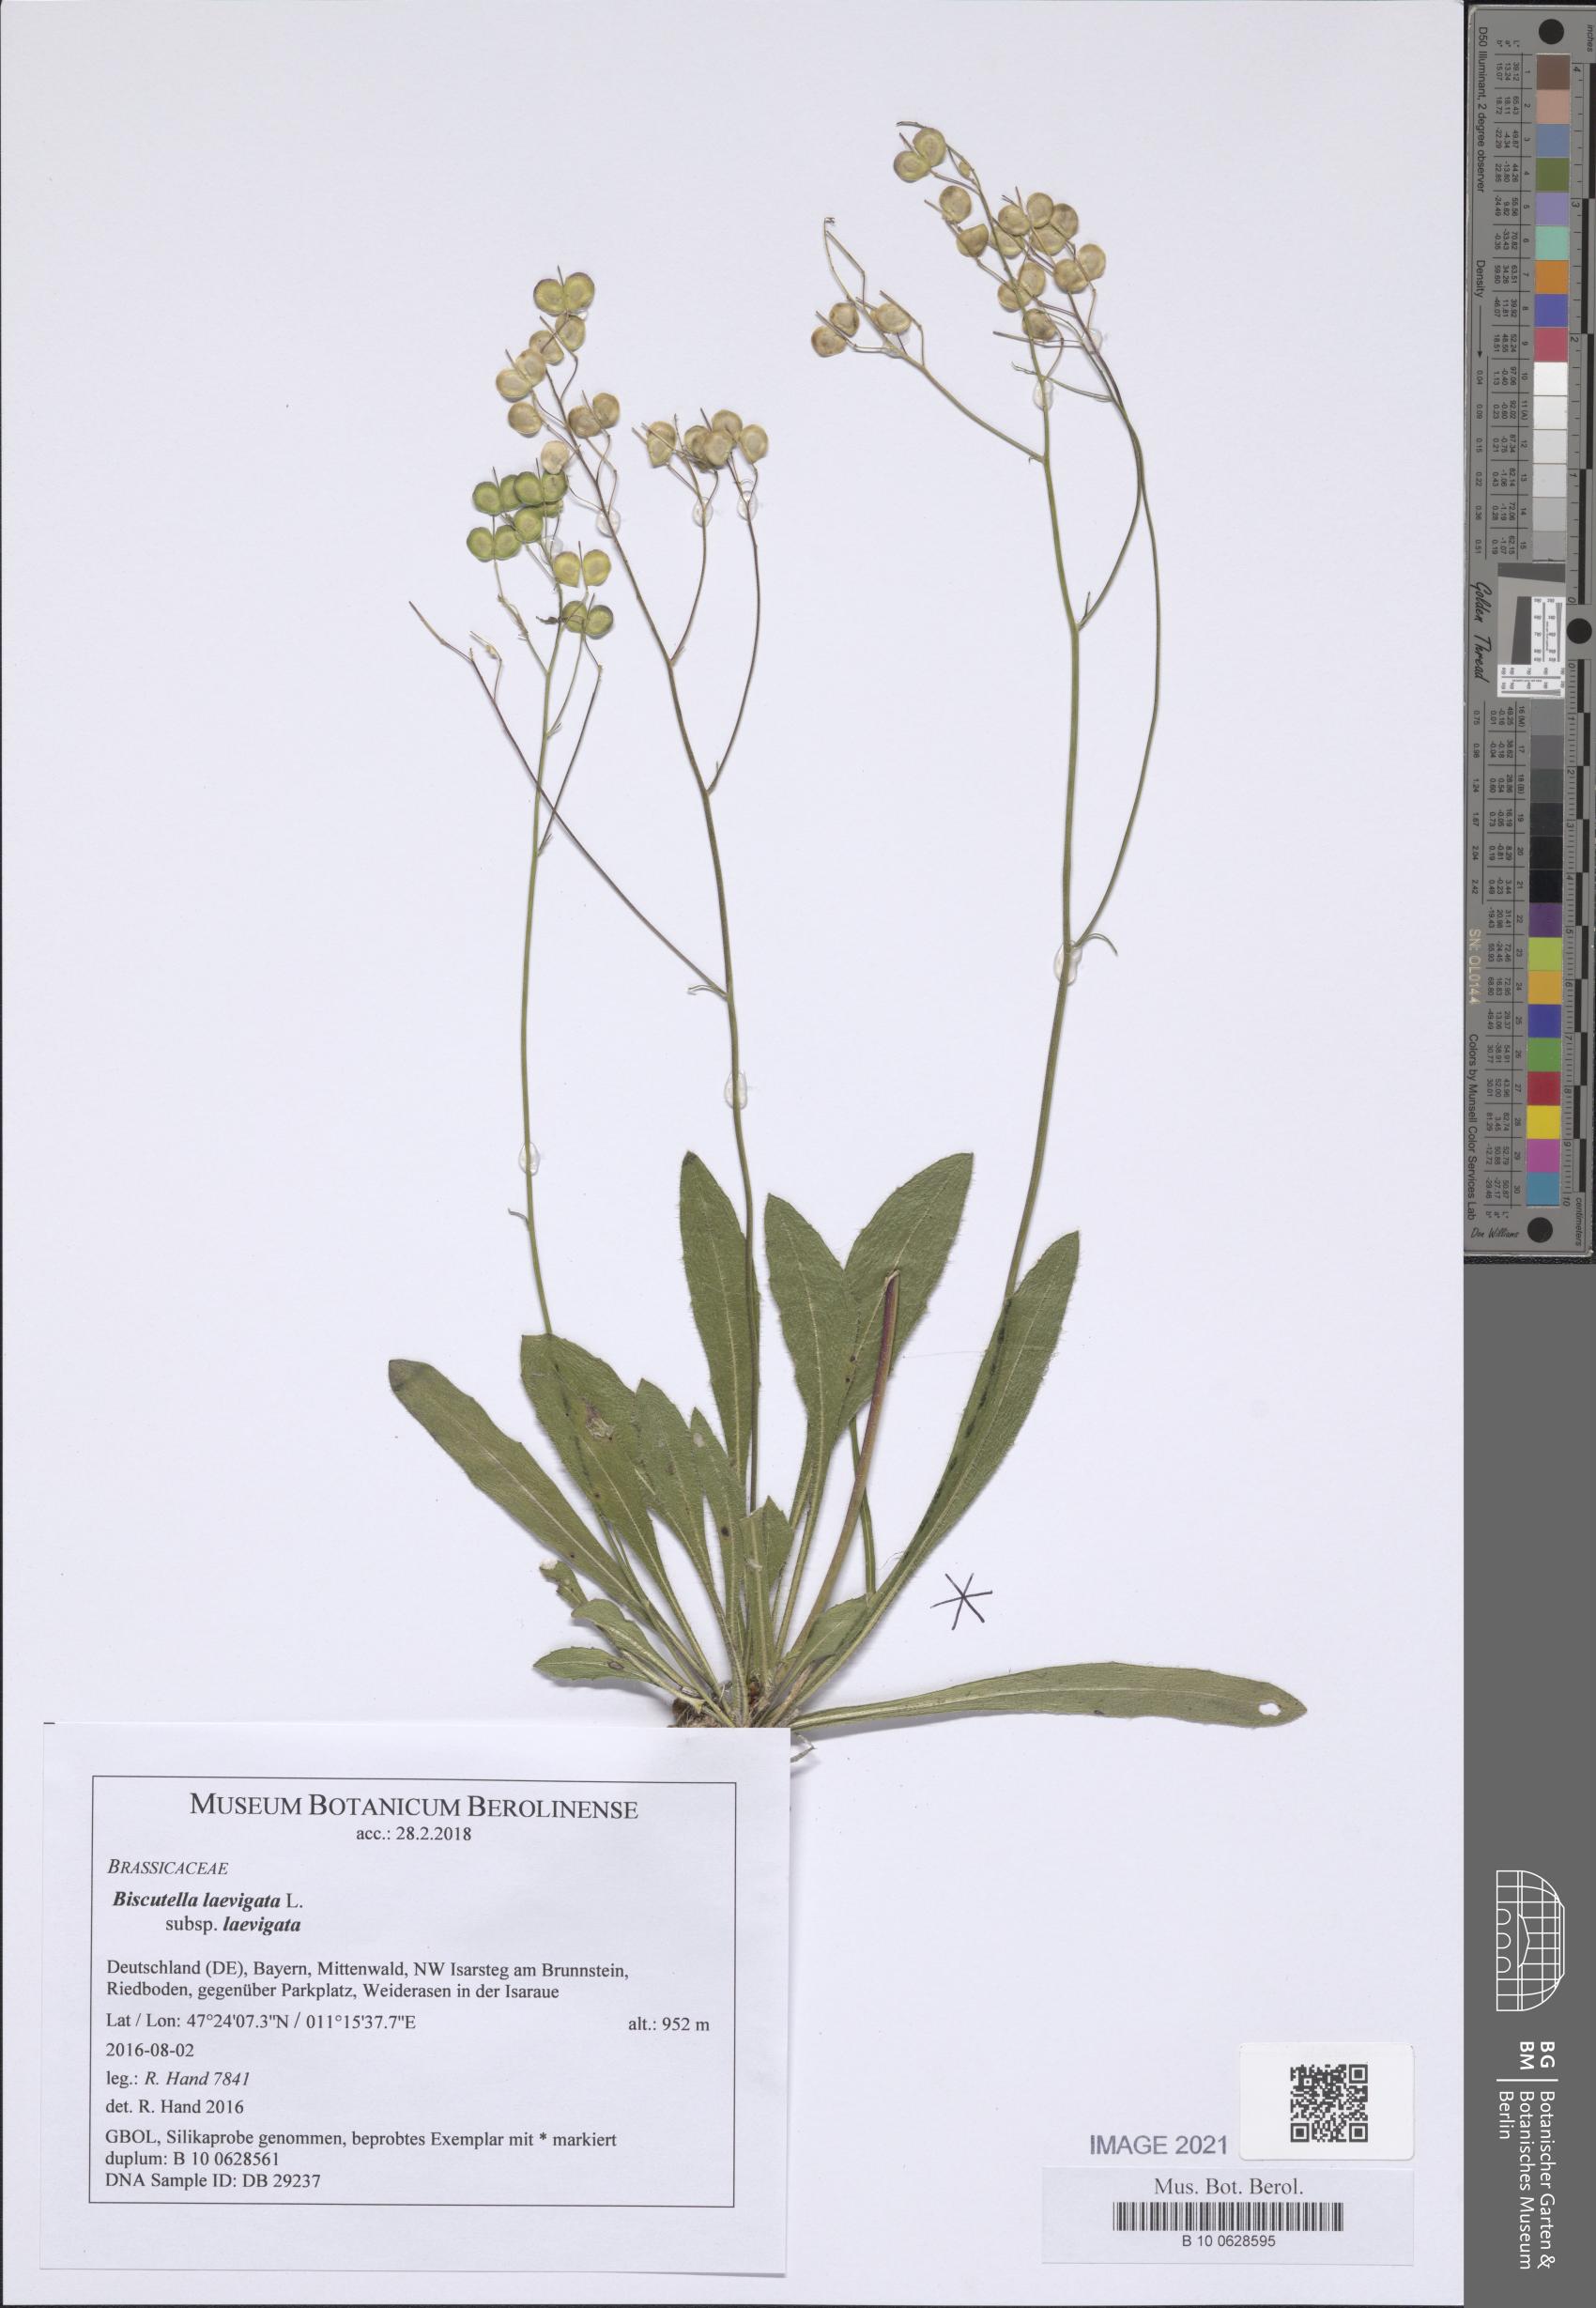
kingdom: Plantae
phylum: Tracheophyta
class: Magnoliopsida
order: Brassicales
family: Brassicaceae
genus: Biscutella
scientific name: Biscutella laevigata
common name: Buckler mustard
